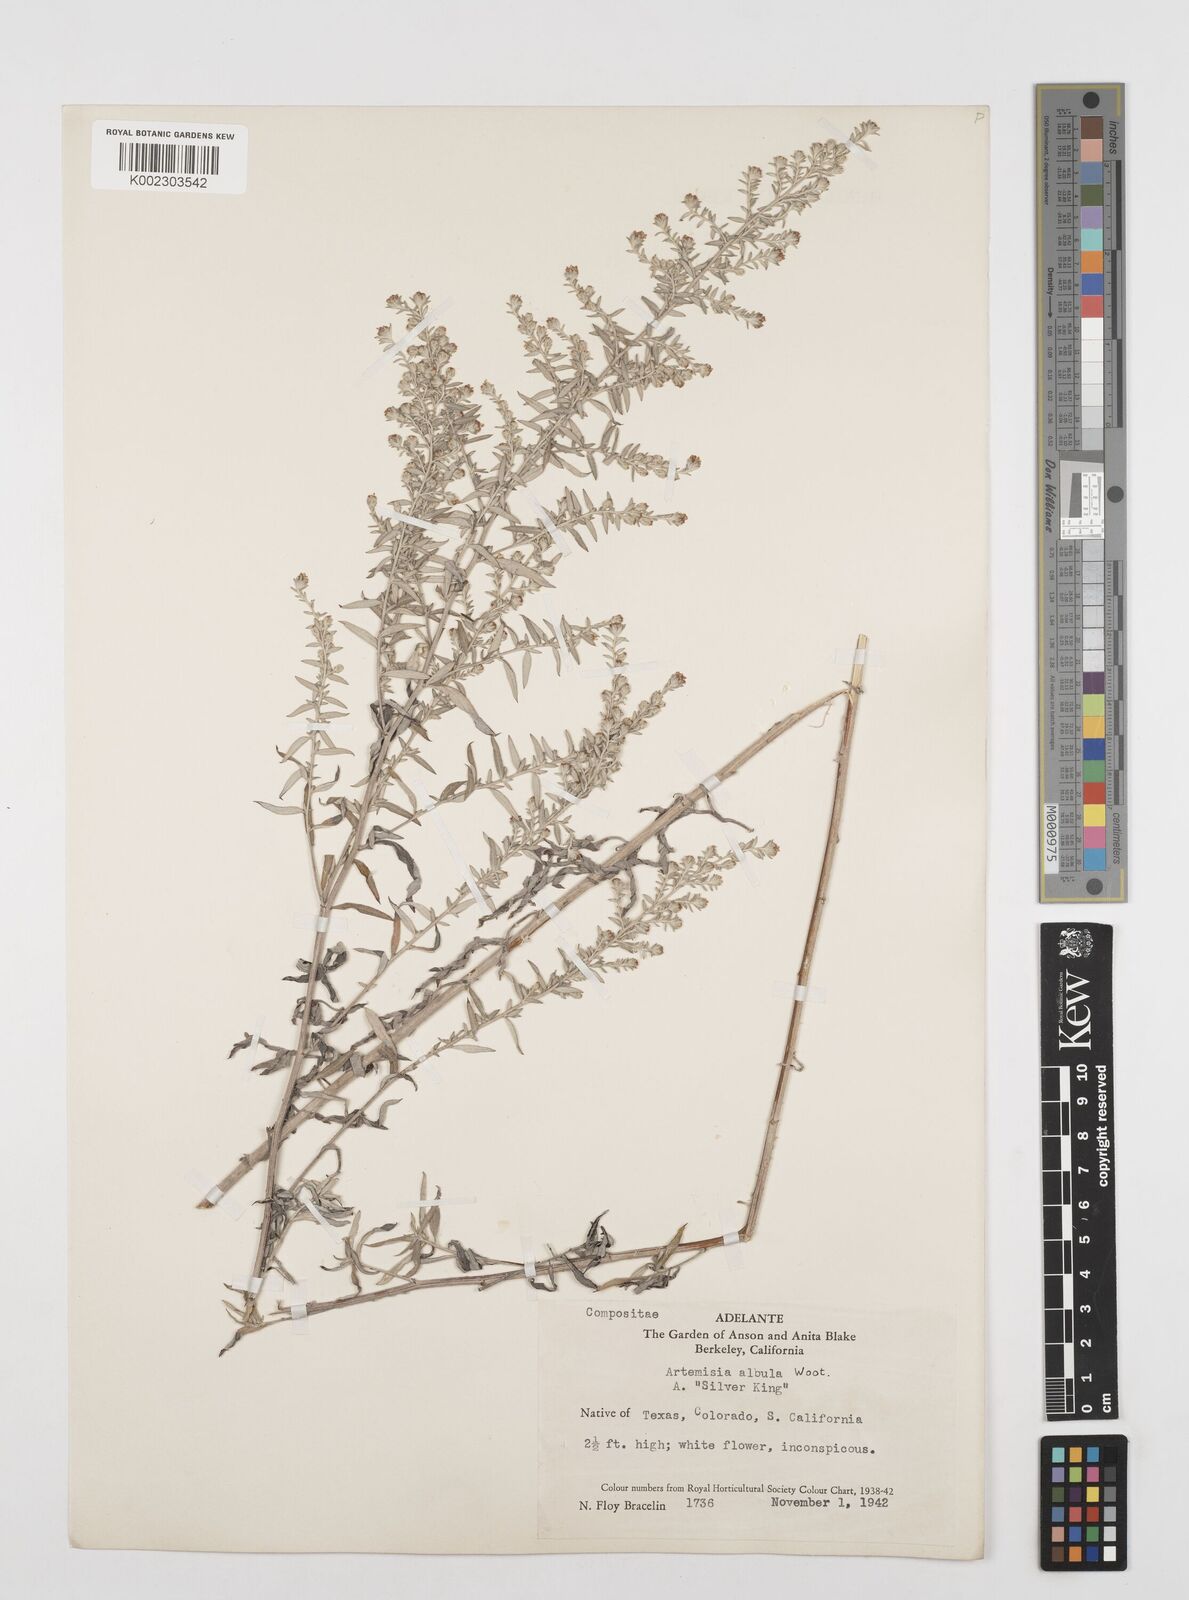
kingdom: Plantae
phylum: Tracheophyta
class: Magnoliopsida
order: Asterales
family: Asteraceae
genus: Artemisia
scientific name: Artemisia ludoviciana
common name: Western mugwort
